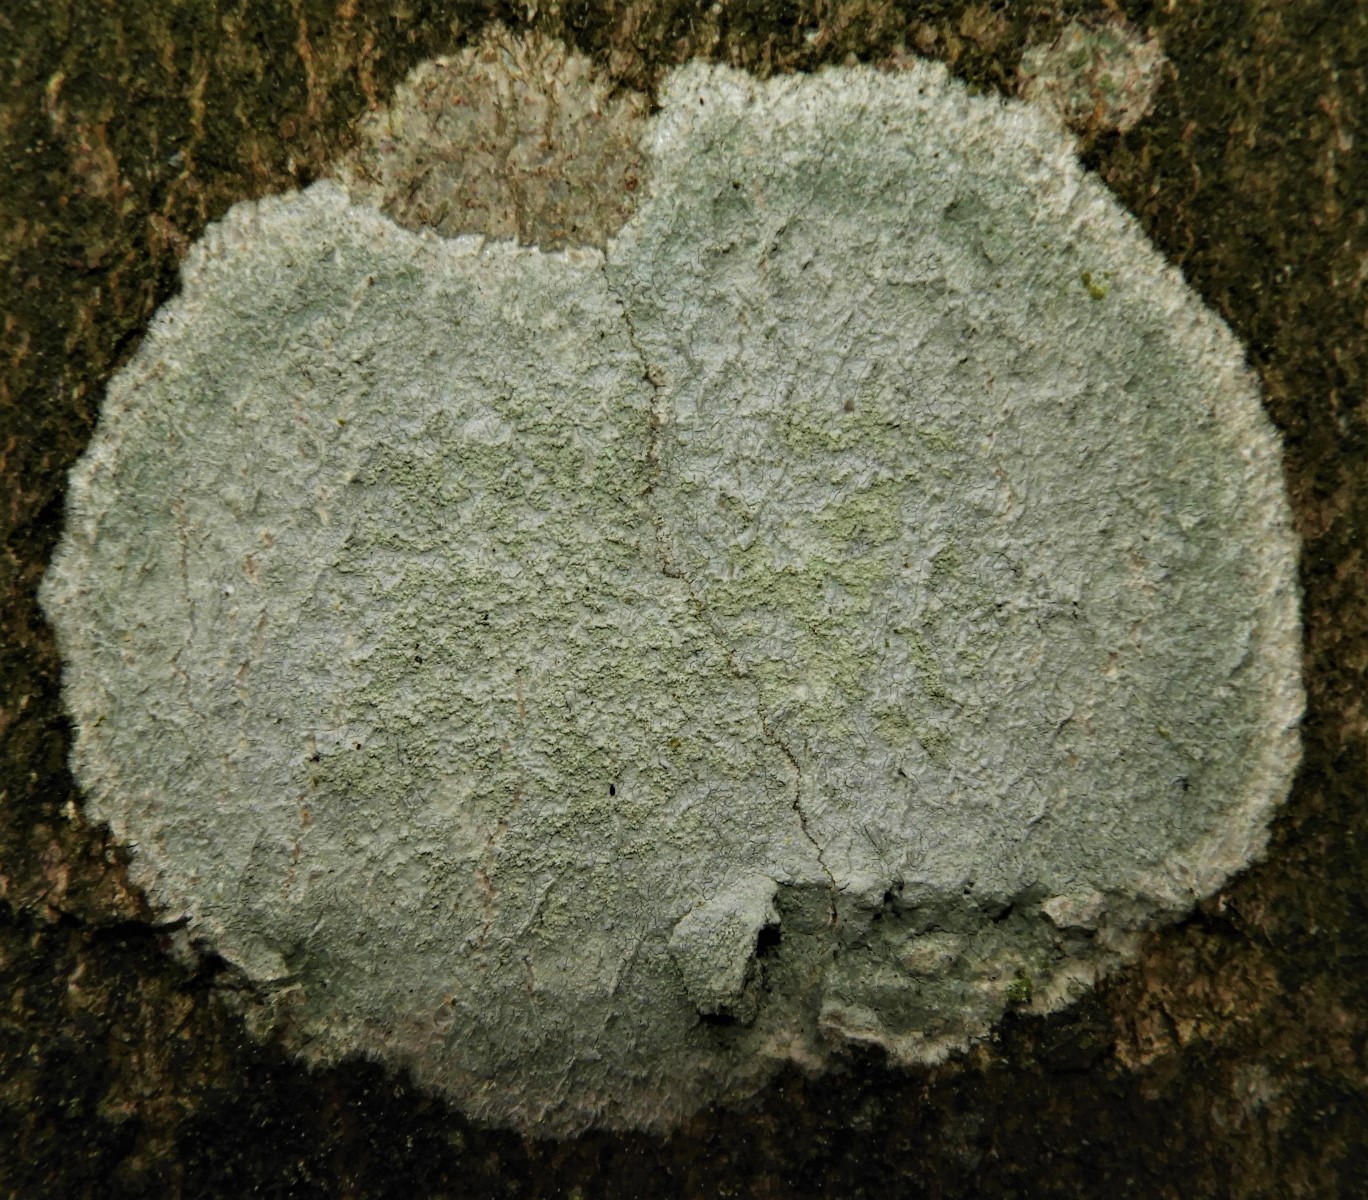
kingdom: Fungi
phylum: Ascomycota
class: Lecanoromycetes
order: Ostropales
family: Phlyctidaceae
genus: Phlyctis
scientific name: Phlyctis argena
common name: almindelig sølvlav
